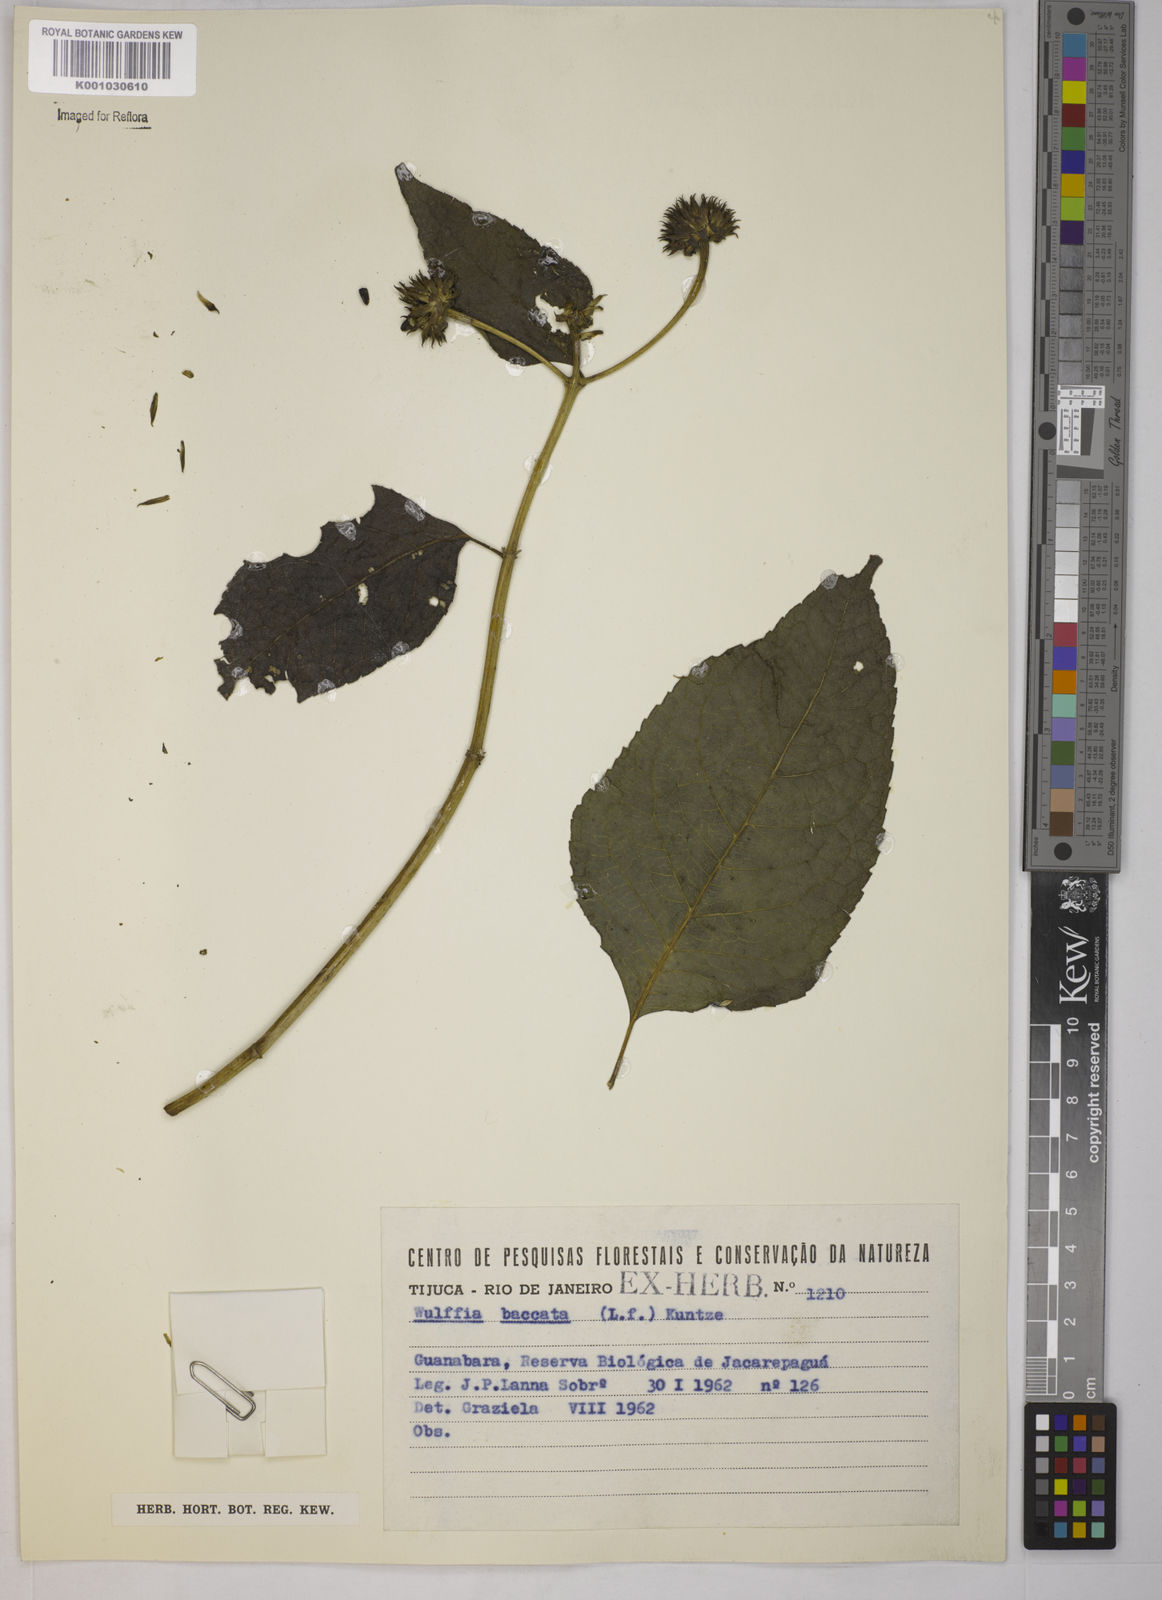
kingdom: Plantae
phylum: Tracheophyta
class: Magnoliopsida
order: Asterales
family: Asteraceae
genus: Tilesia
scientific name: Tilesia baccata
